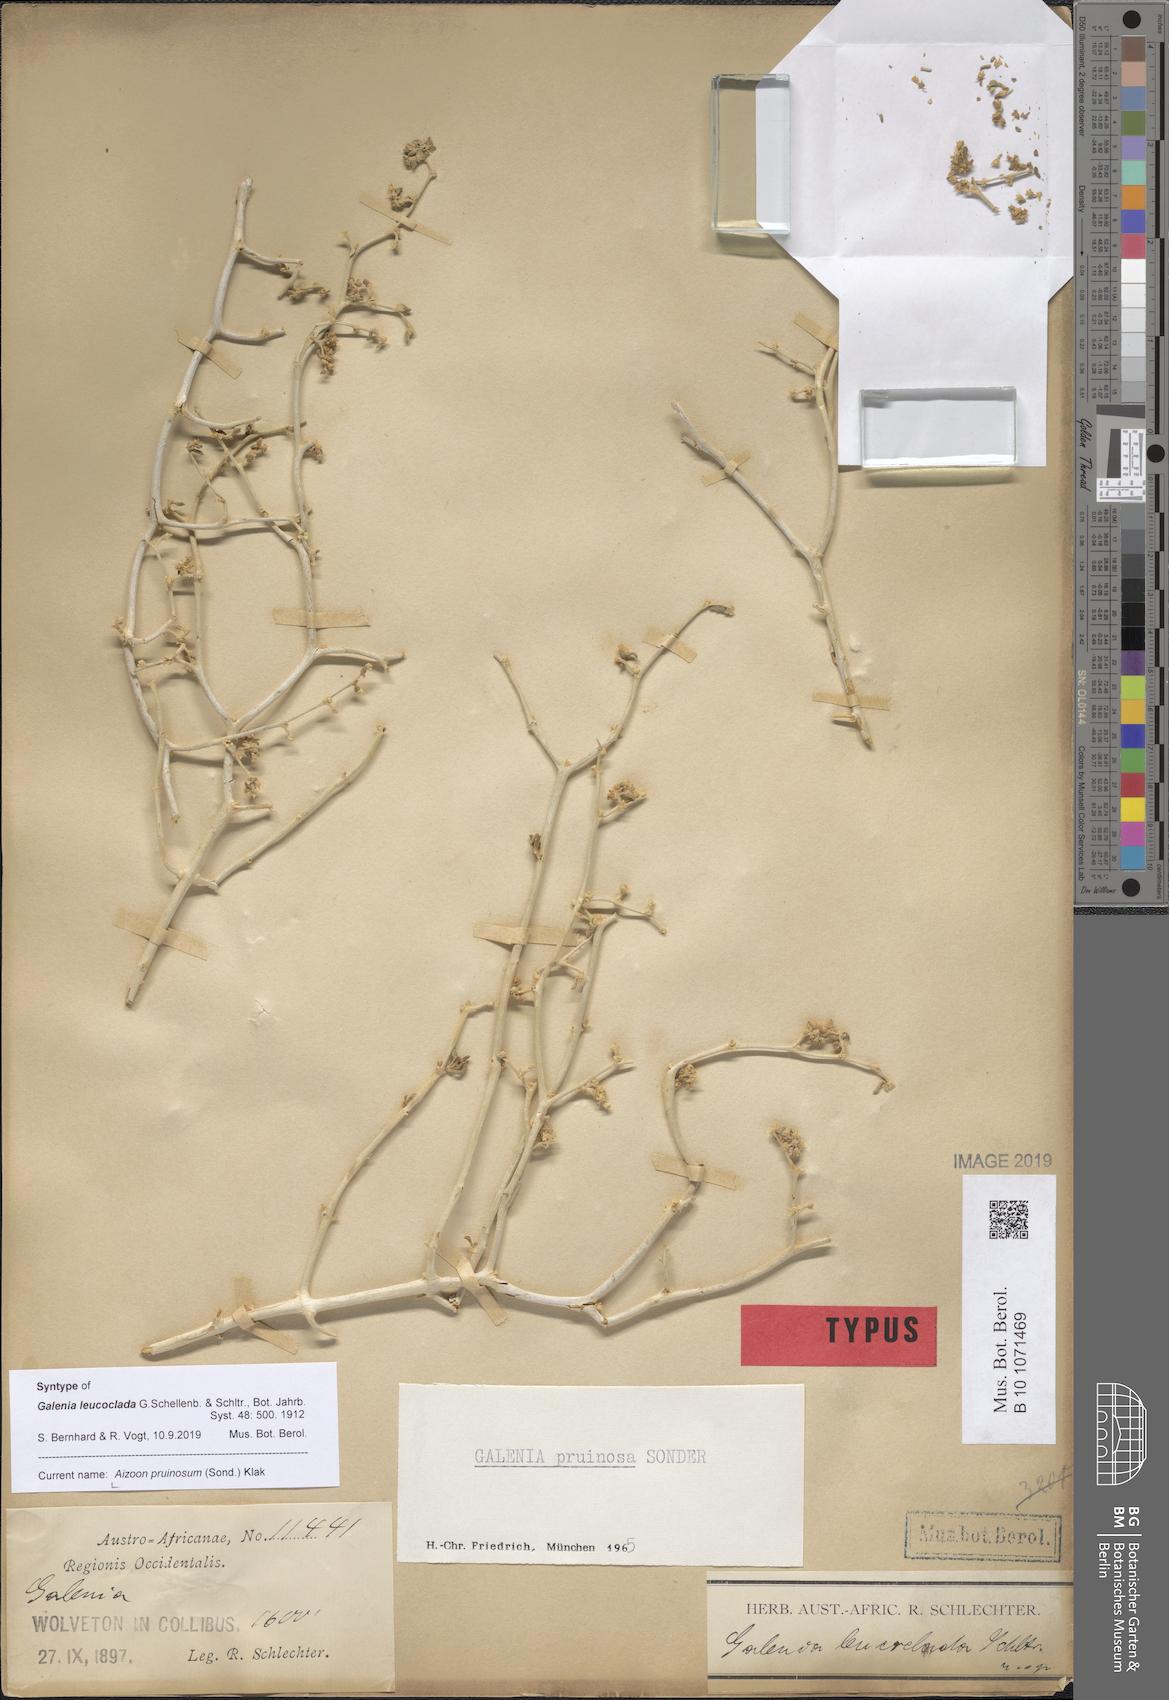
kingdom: Plantae
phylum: Tracheophyta
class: Magnoliopsida
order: Caryophyllales
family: Aizoaceae
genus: Aizoon
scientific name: Aizoon pruinosum
